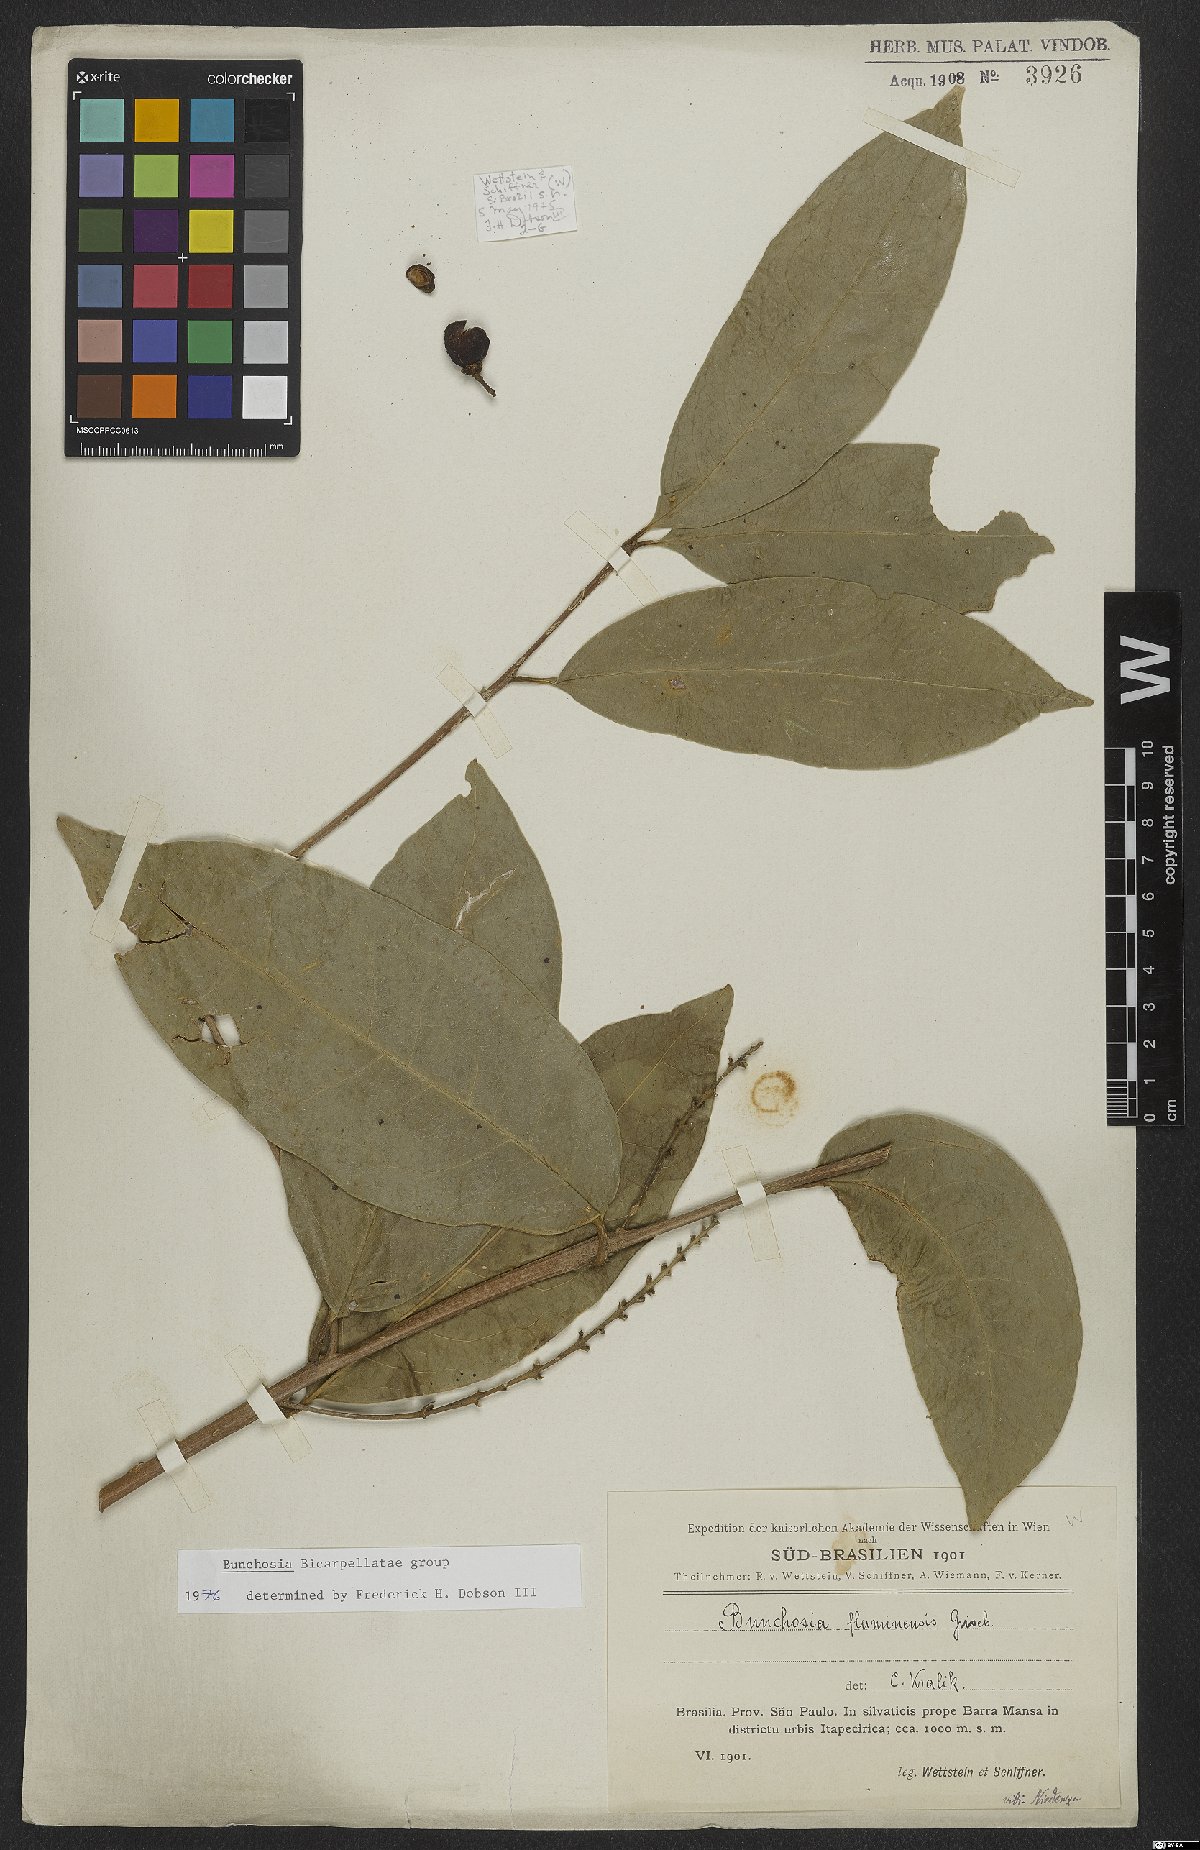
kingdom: Plantae
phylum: Tracheophyta
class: Magnoliopsida
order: Malpighiales
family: Malpighiaceae
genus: Bunchosia
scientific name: Bunchosia fluminensis
